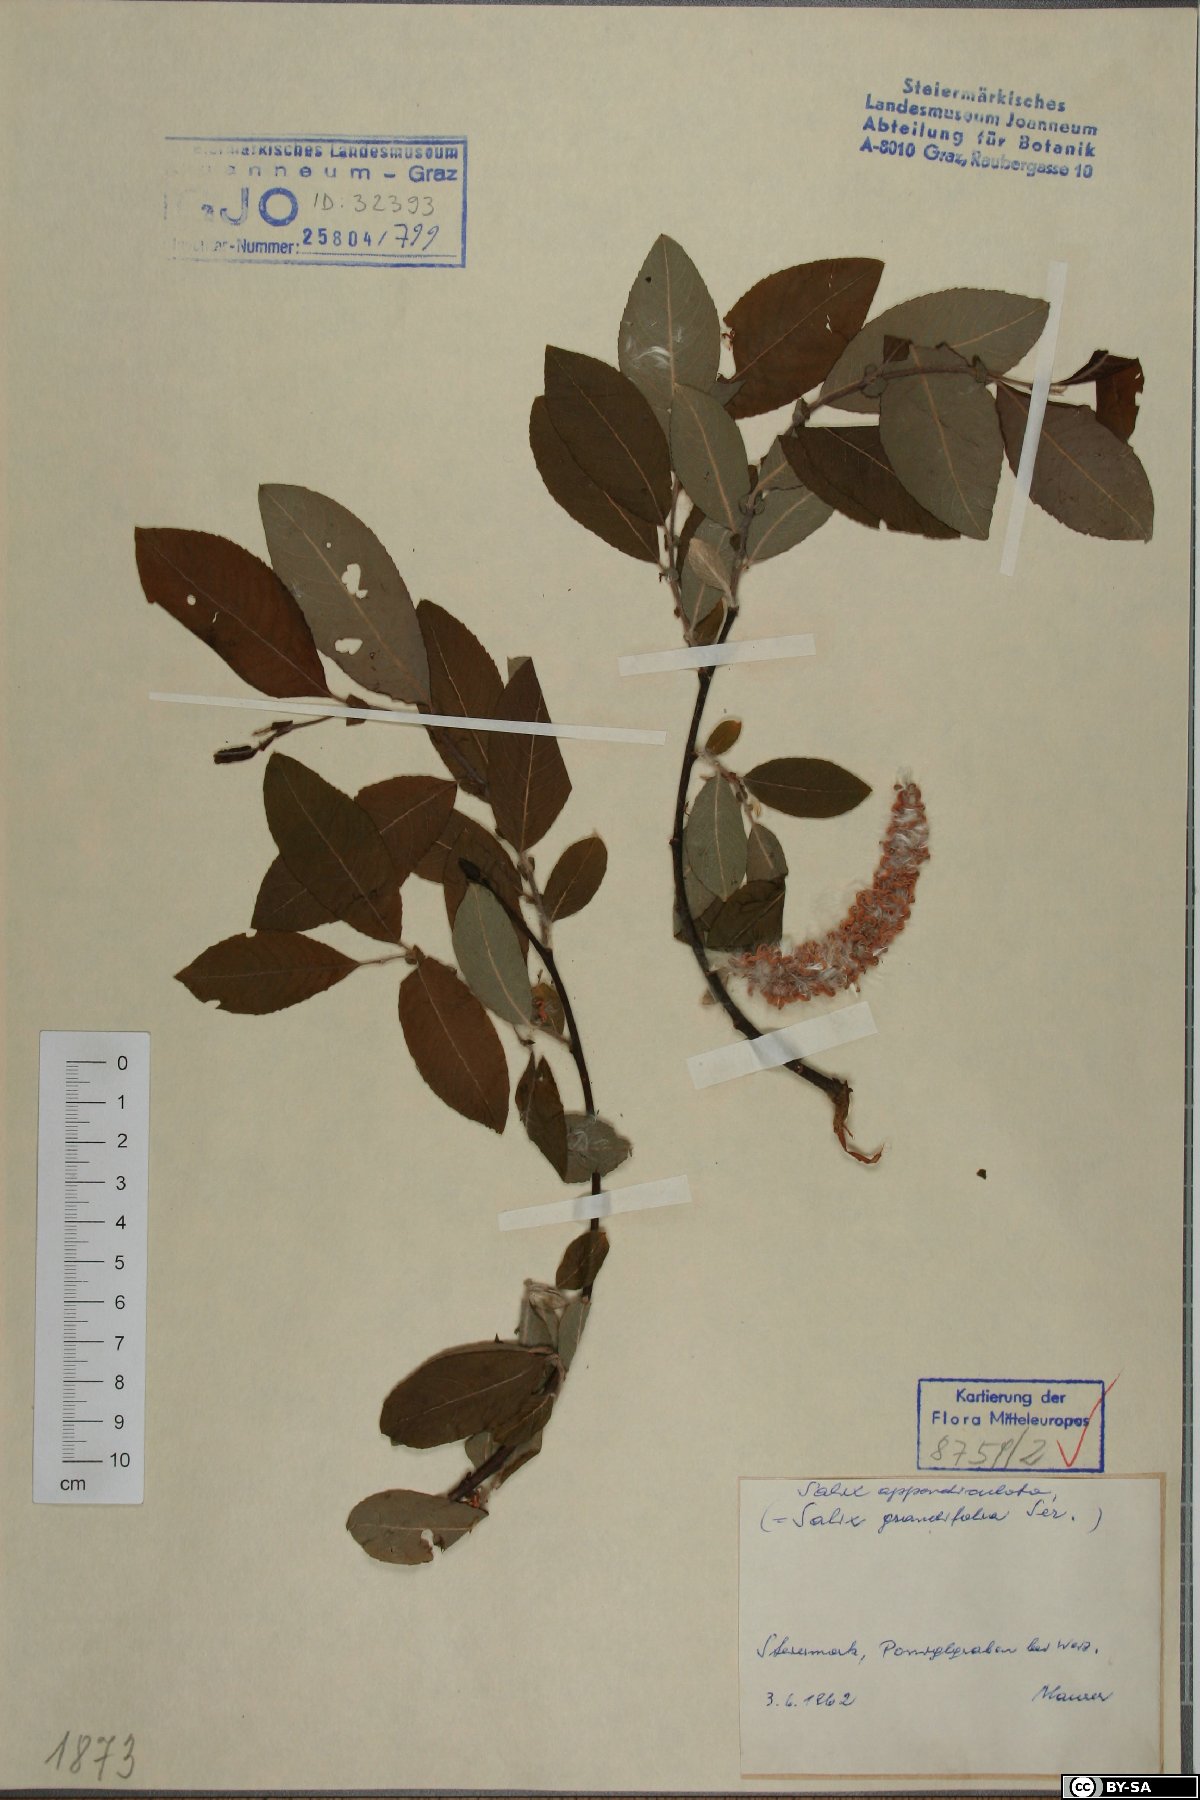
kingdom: Plantae
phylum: Tracheophyta
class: Magnoliopsida
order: Malpighiales
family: Salicaceae
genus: Salix
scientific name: Salix appendiculata
